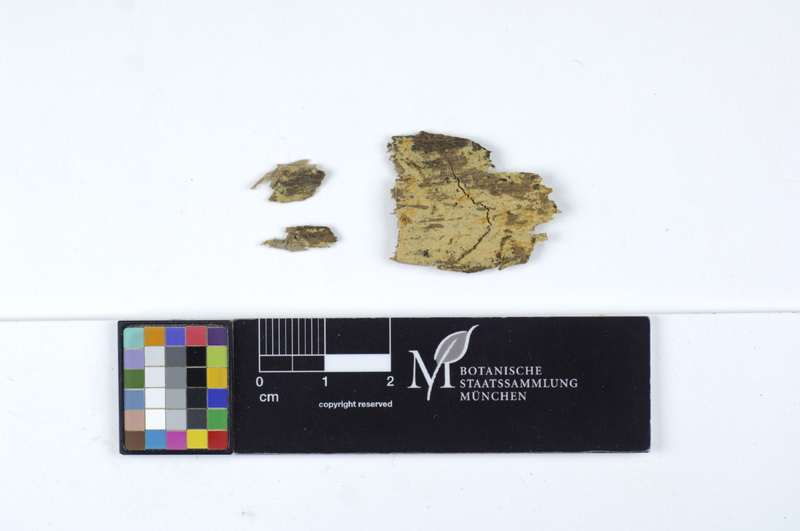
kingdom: Fungi
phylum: Basidiomycota
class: Agaricomycetes
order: Hymenochaetales
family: Rickenellaceae
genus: Odonticium
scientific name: Odonticium septocystidia
